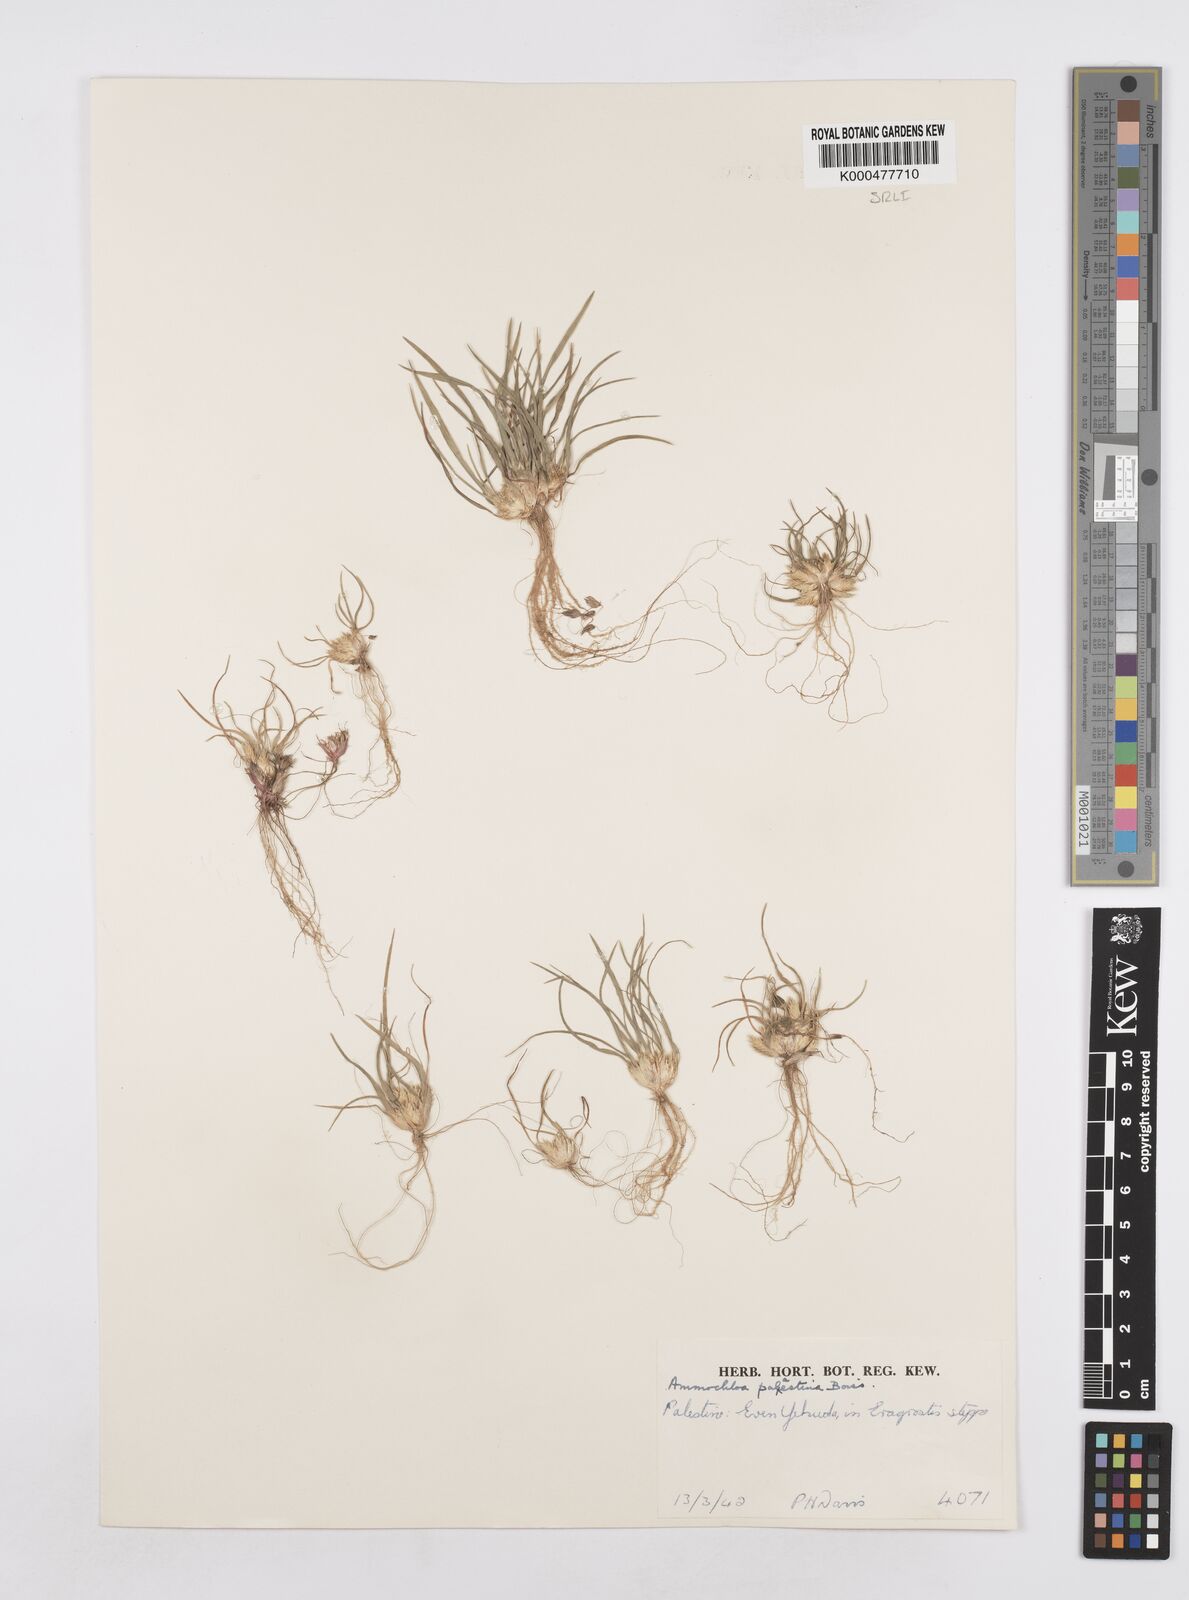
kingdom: Plantae
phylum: Tracheophyta
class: Liliopsida
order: Poales
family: Poaceae
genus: Ammochloa
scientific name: Ammochloa palaestina
